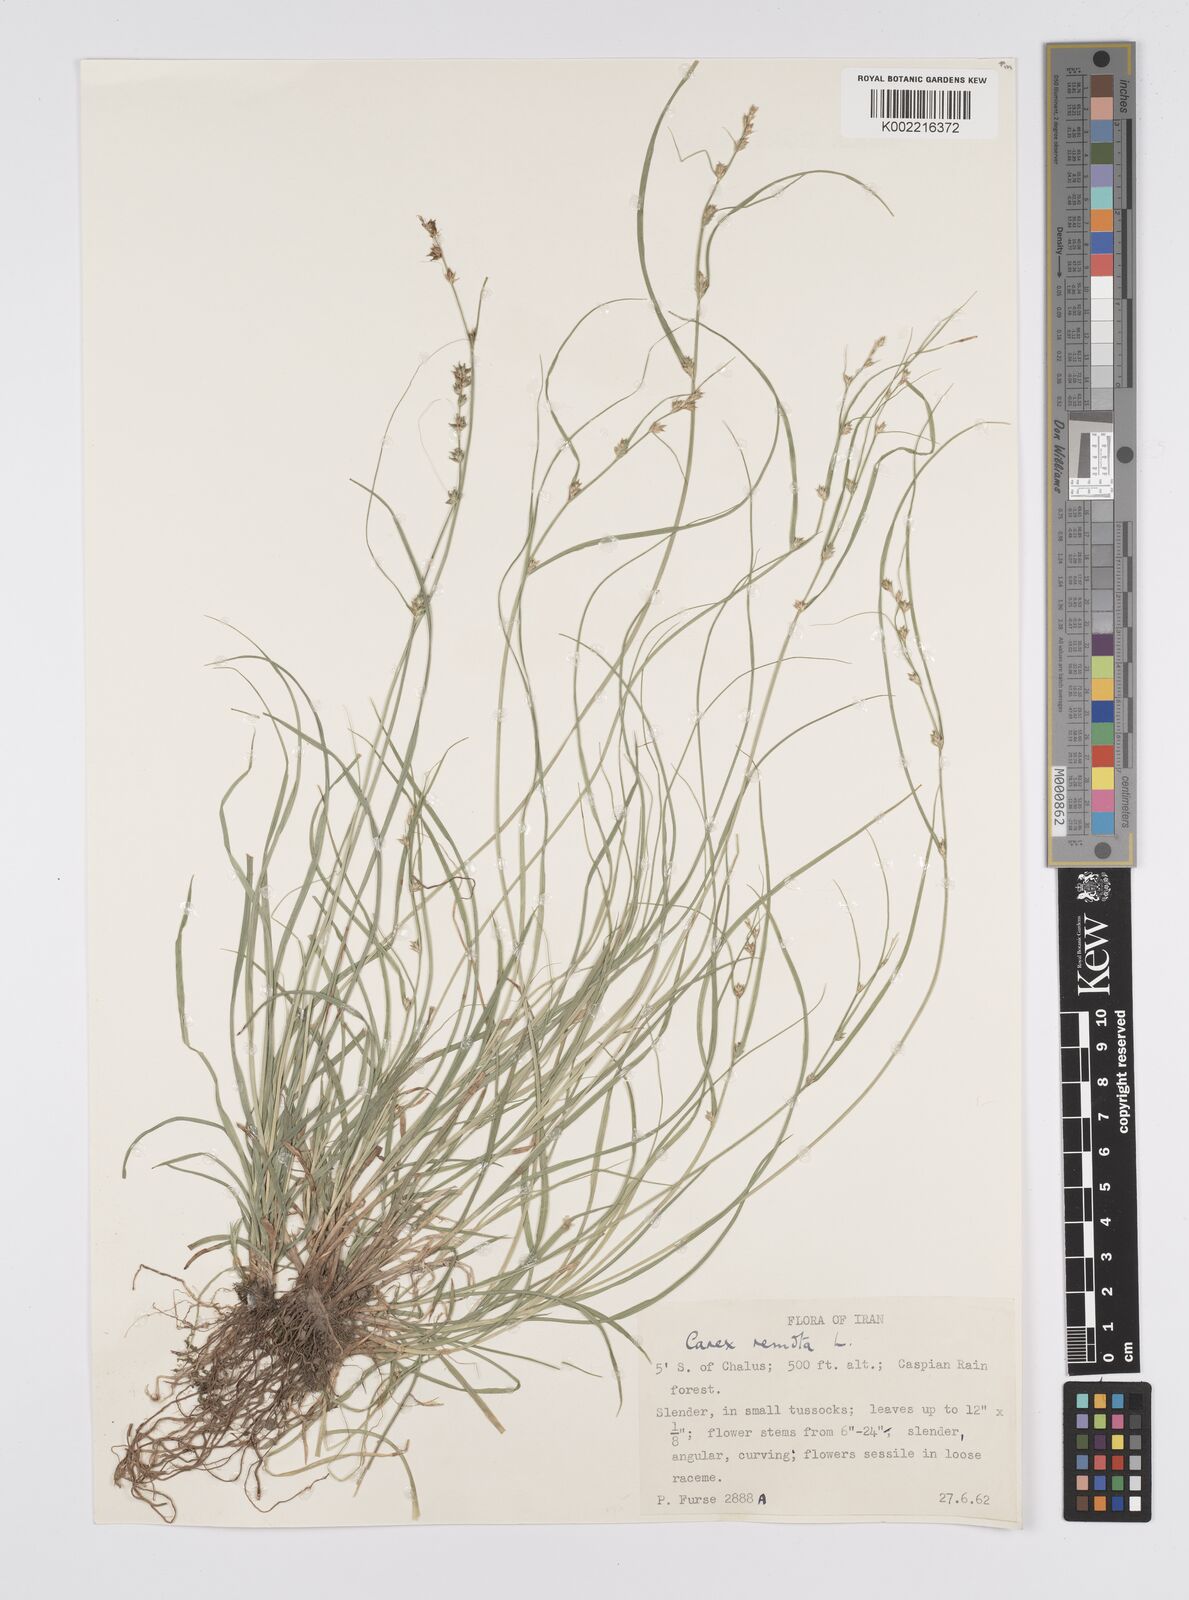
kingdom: Plantae
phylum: Tracheophyta
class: Liliopsida
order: Poales
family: Cyperaceae
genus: Carex
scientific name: Carex remota
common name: Remote sedge
